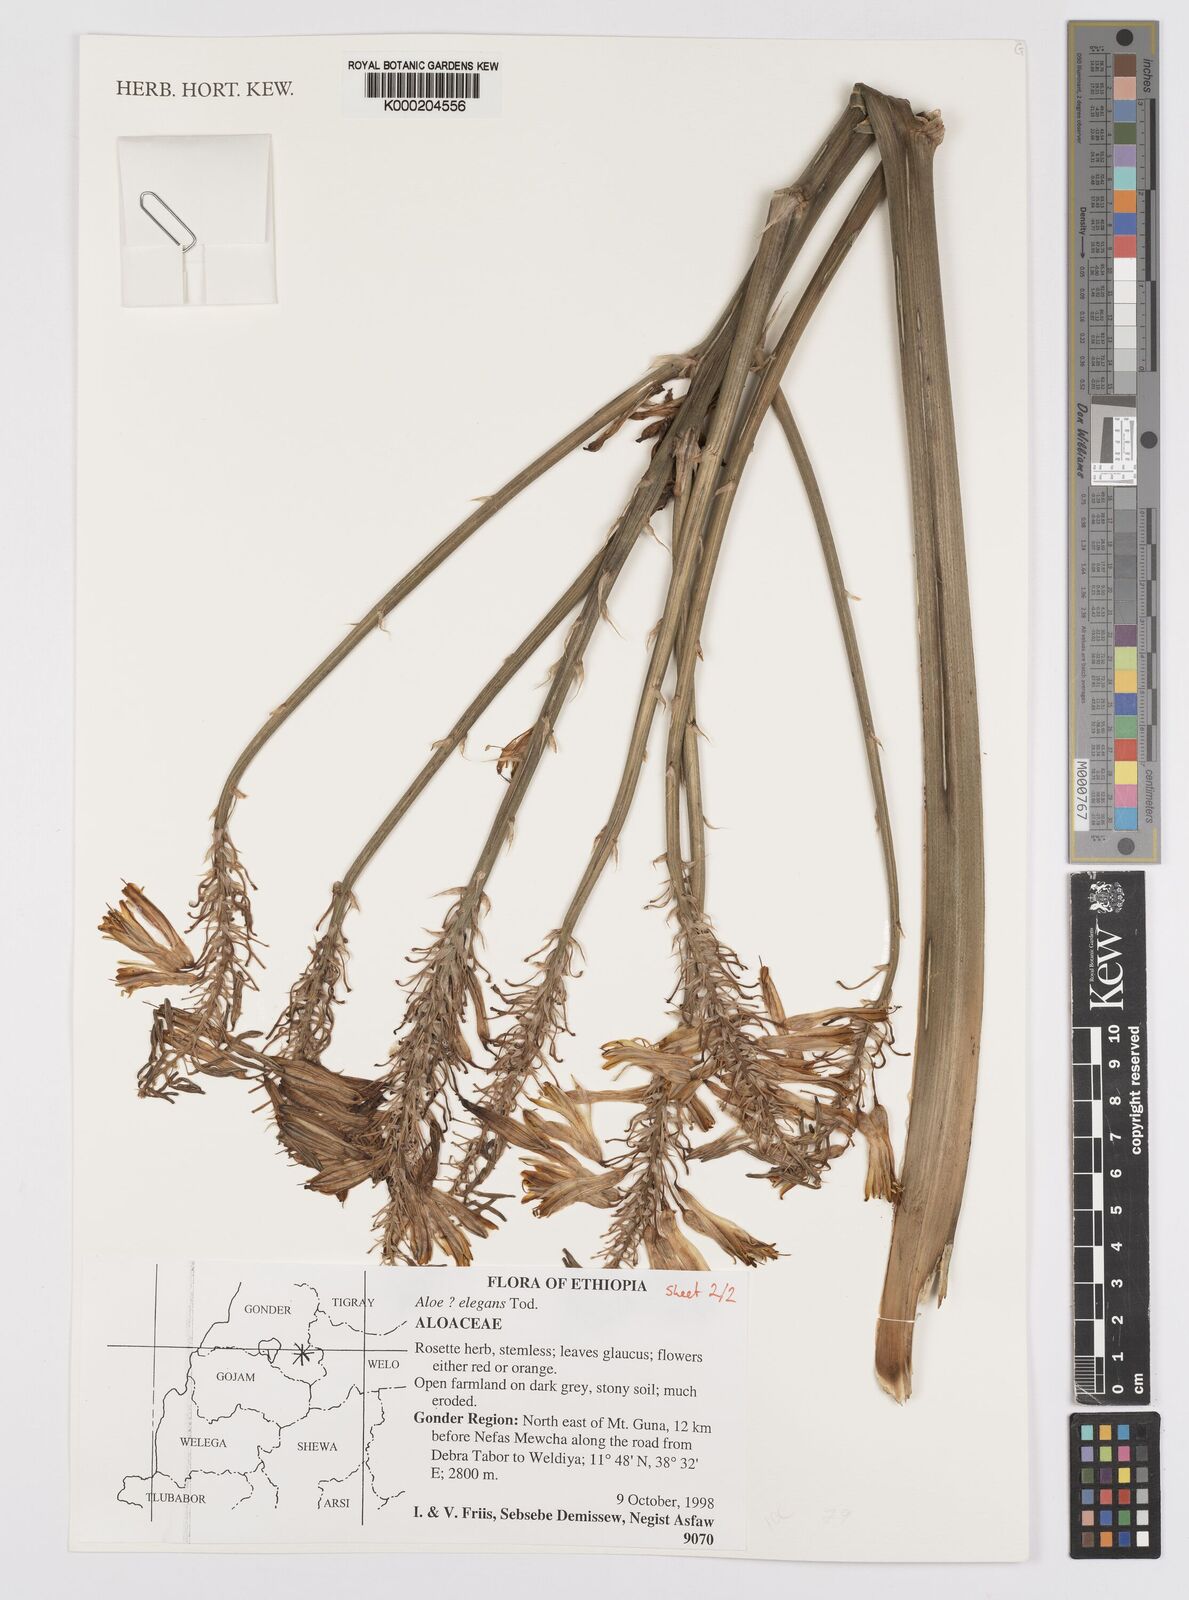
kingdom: Plantae
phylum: Tracheophyta
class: Liliopsida
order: Asparagales
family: Asphodelaceae
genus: Aloe
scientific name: Aloe elegans
